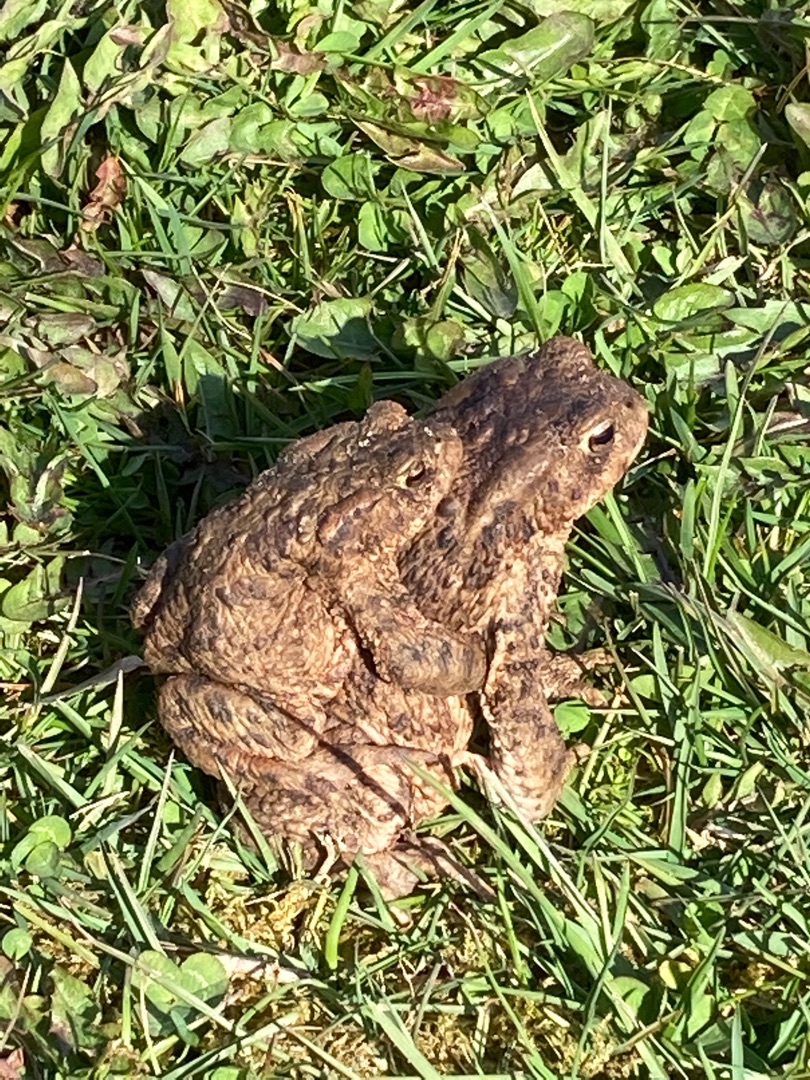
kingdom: Animalia
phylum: Chordata
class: Amphibia
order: Anura
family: Bufonidae
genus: Bufo
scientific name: Bufo bufo
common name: Skrubtudse
